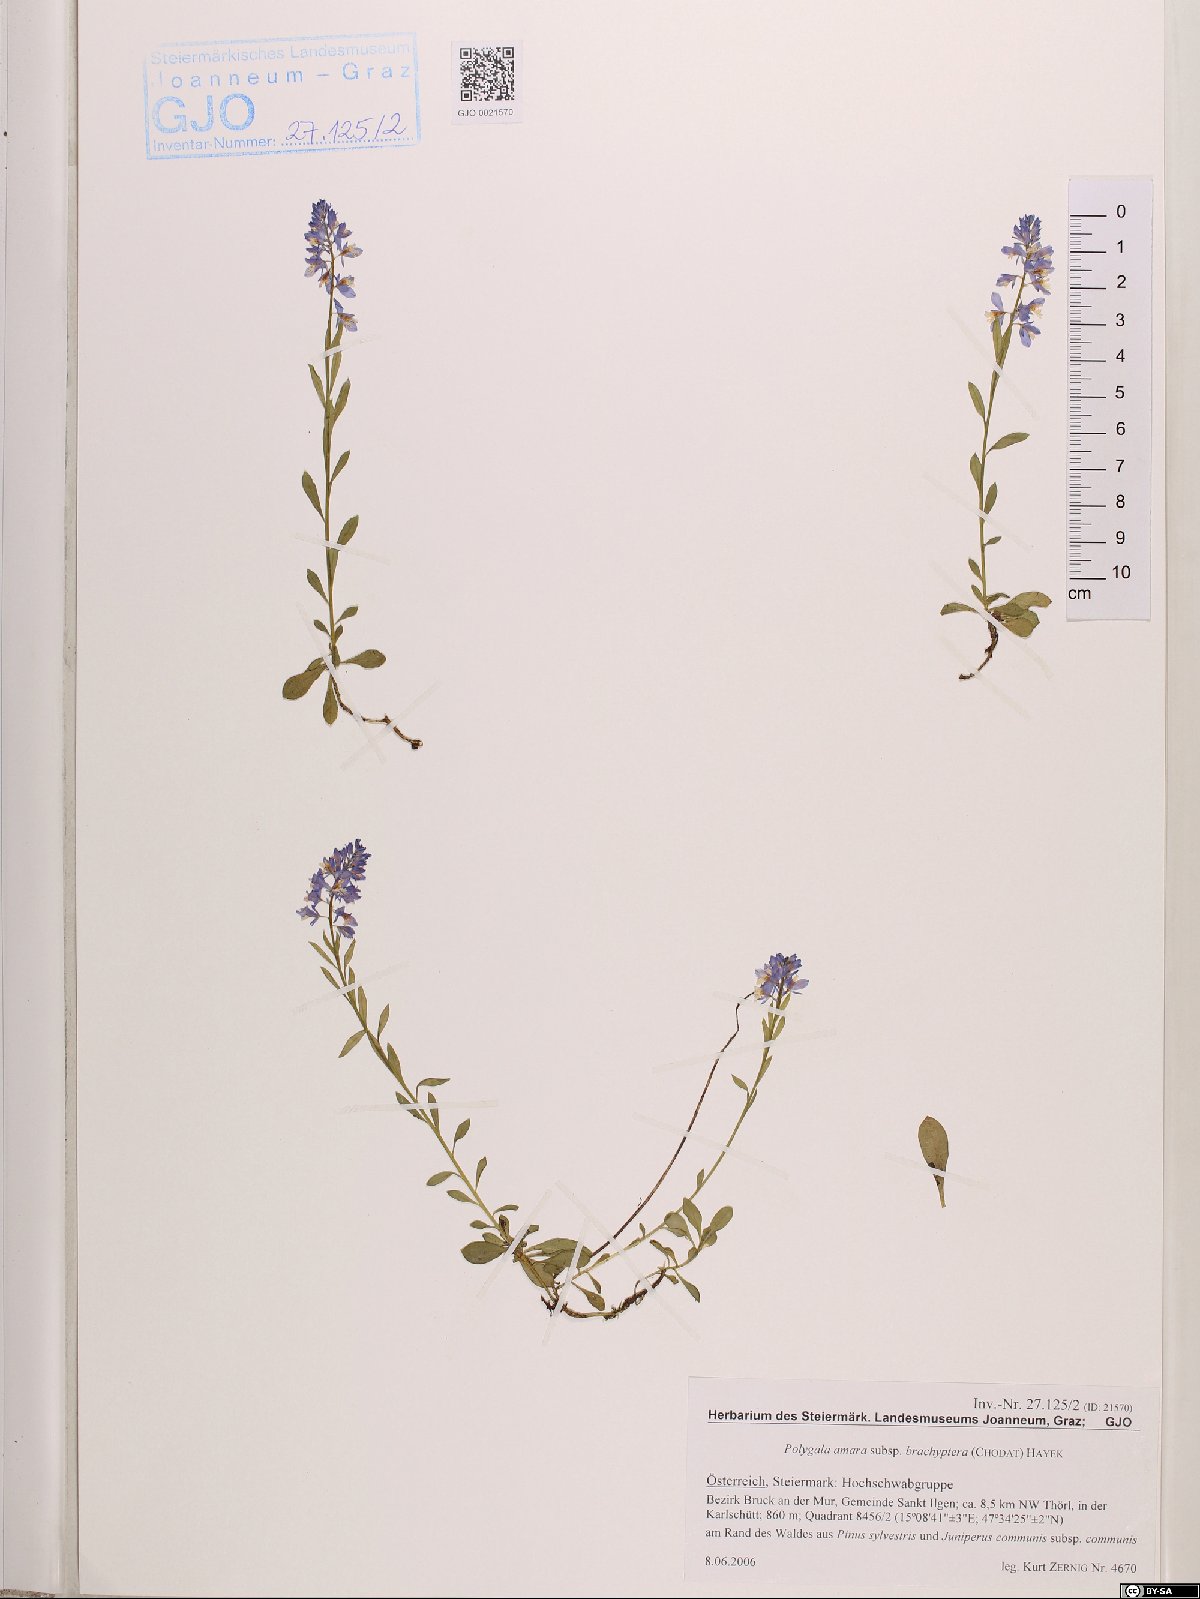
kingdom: Plantae
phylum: Tracheophyta
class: Magnoliopsida
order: Fabales
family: Polygalaceae
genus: Polygala
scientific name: Polygala amara
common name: Milkwort
